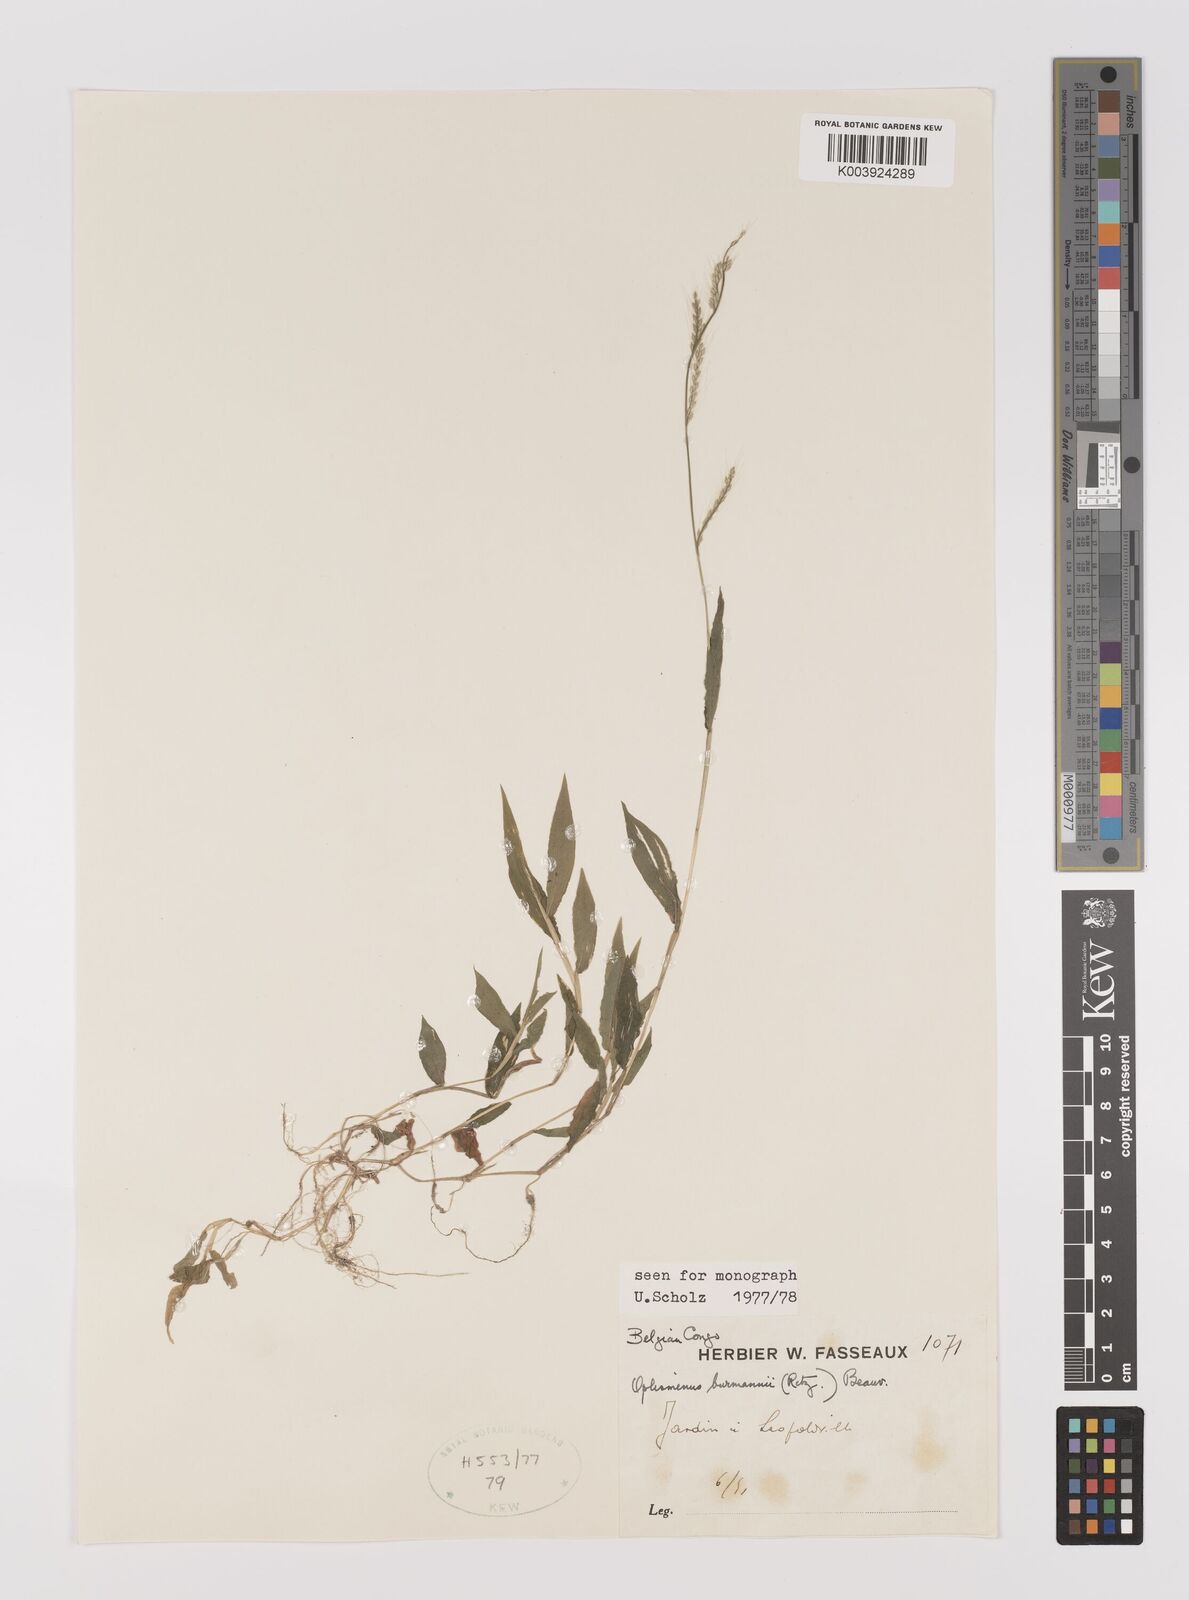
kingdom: Plantae
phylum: Tracheophyta
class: Liliopsida
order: Poales
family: Poaceae
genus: Oplismenus
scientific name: Oplismenus burmanni
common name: Burmann's basketgrass
